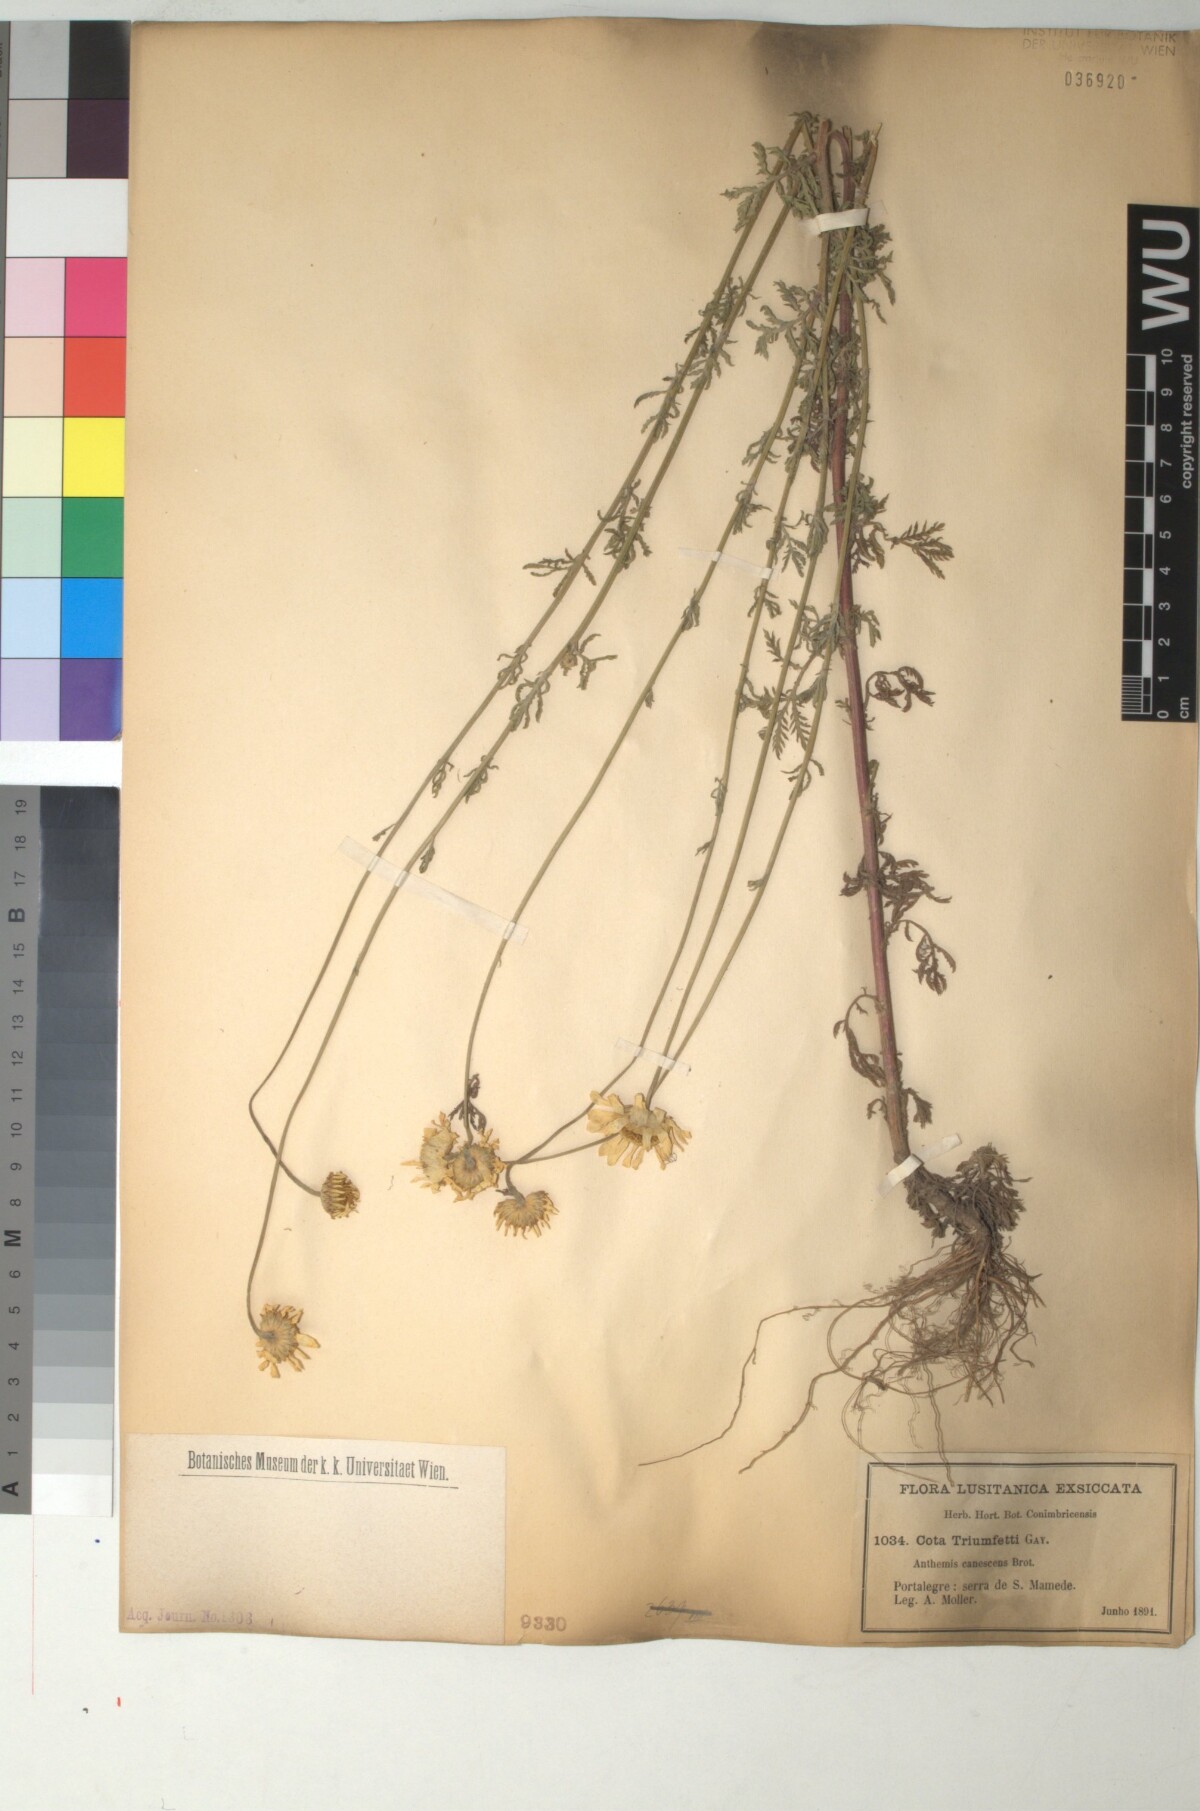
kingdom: Plantae
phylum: Tracheophyta
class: Magnoliopsida
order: Asterales
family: Asteraceae
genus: Cota
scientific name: Cota triumfetti
